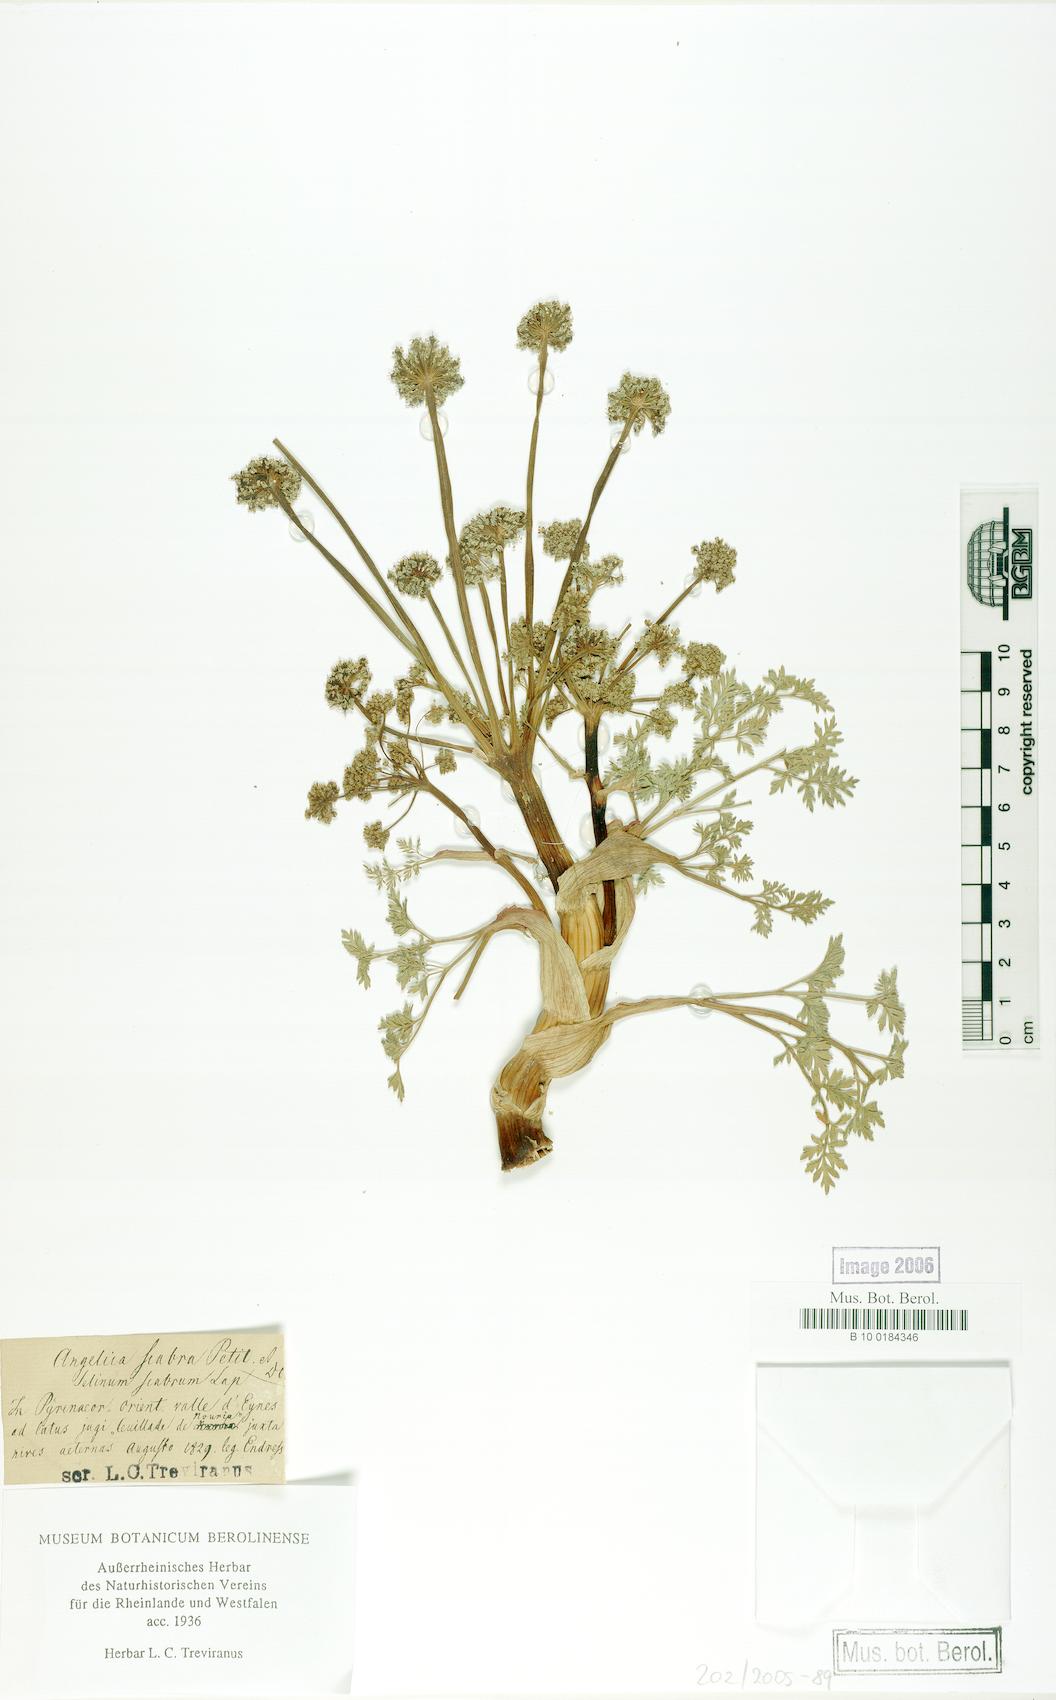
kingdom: Plantae
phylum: Tracheophyta
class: Magnoliopsida
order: Apiales
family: Apiaceae
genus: Xatardia
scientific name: Xatardia scabra
